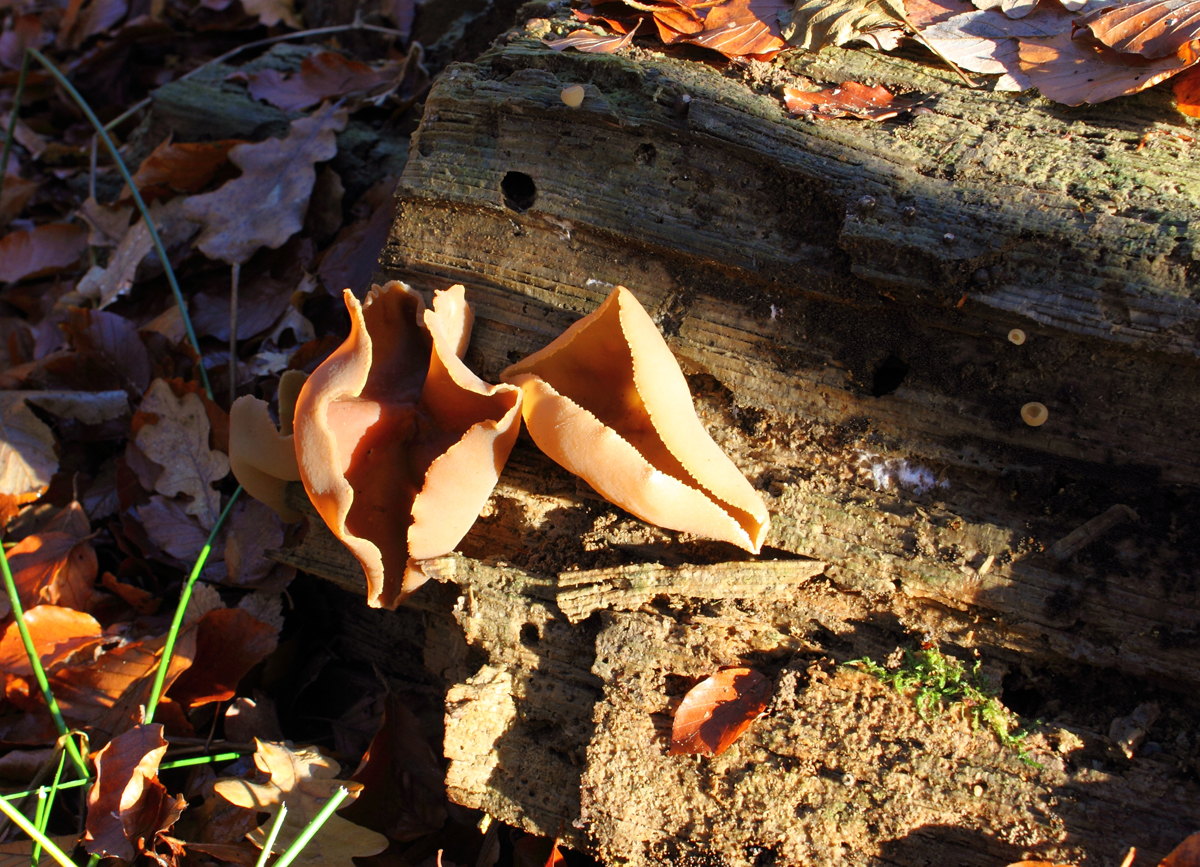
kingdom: Fungi
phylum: Ascomycota
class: Pezizomycetes
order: Pezizales
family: Pezizaceae
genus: Peziza
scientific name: Peziza varia
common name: Ved-bægersvamp
